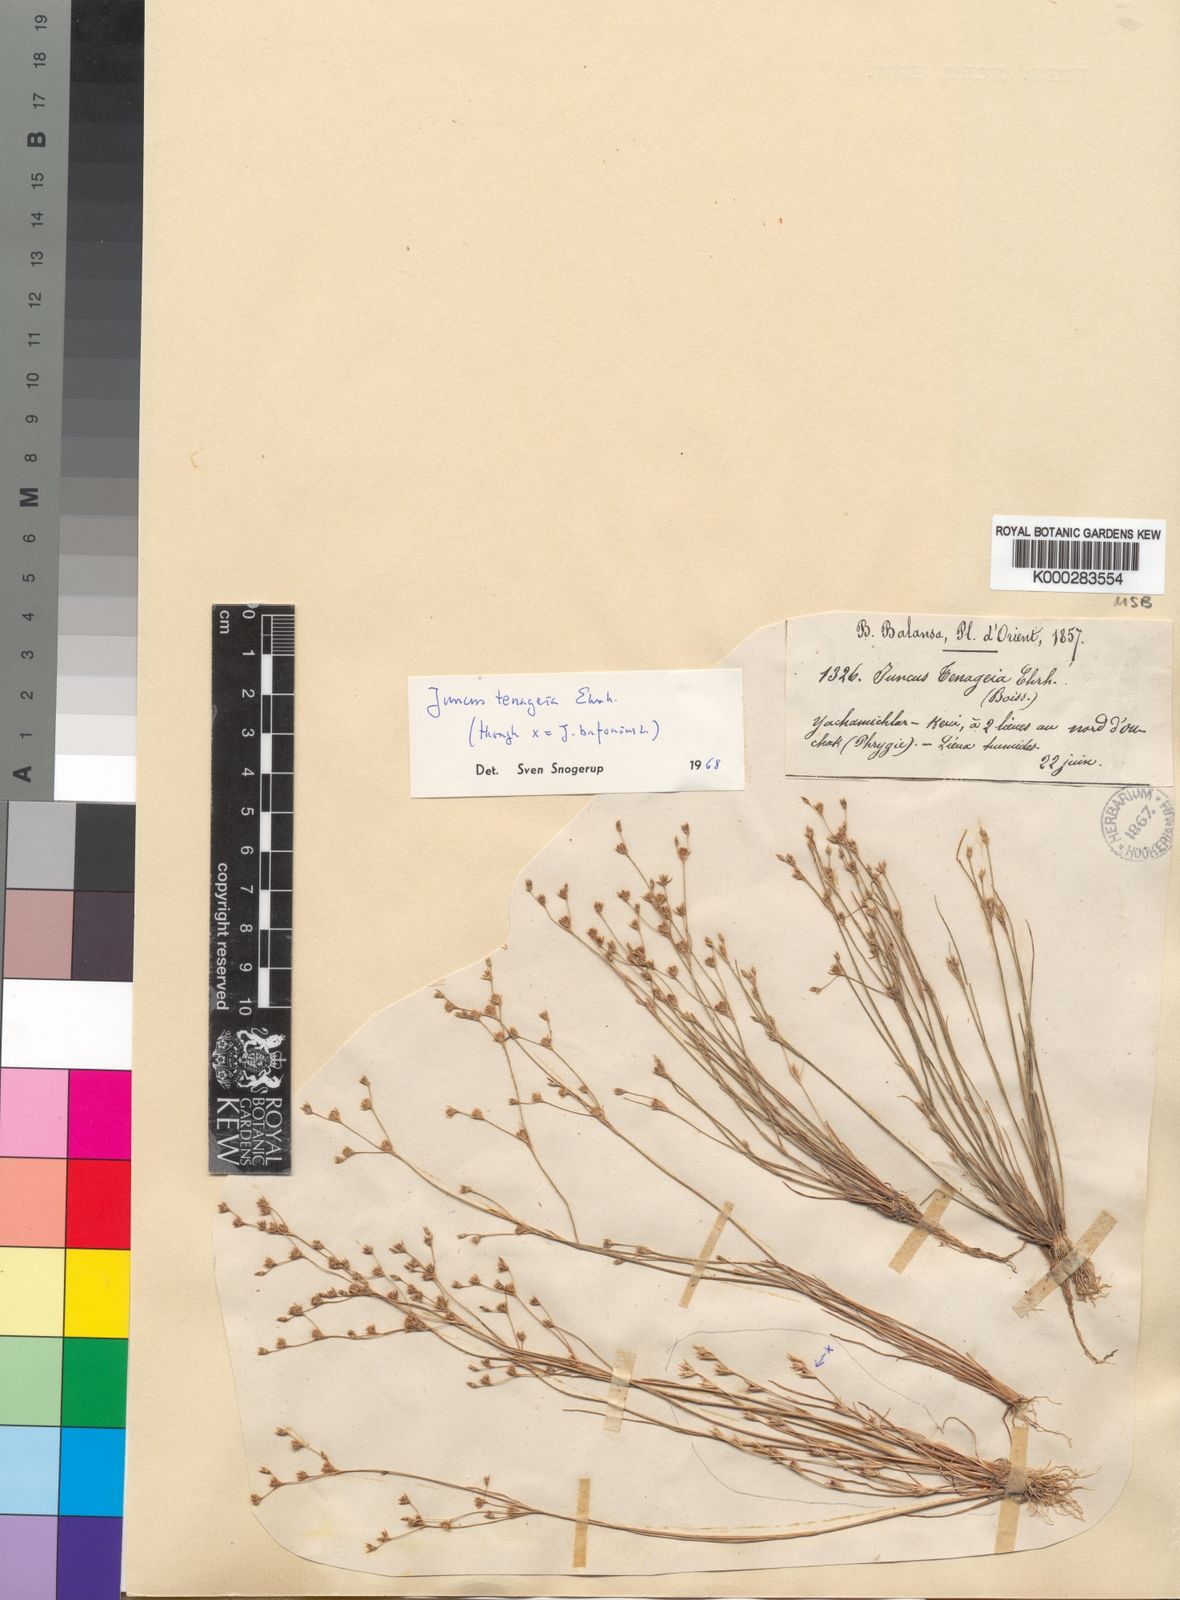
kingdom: Plantae
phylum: Tracheophyta
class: Liliopsida
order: Poales
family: Juncaceae
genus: Juncus
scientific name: Juncus tenageia
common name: Sand rush
